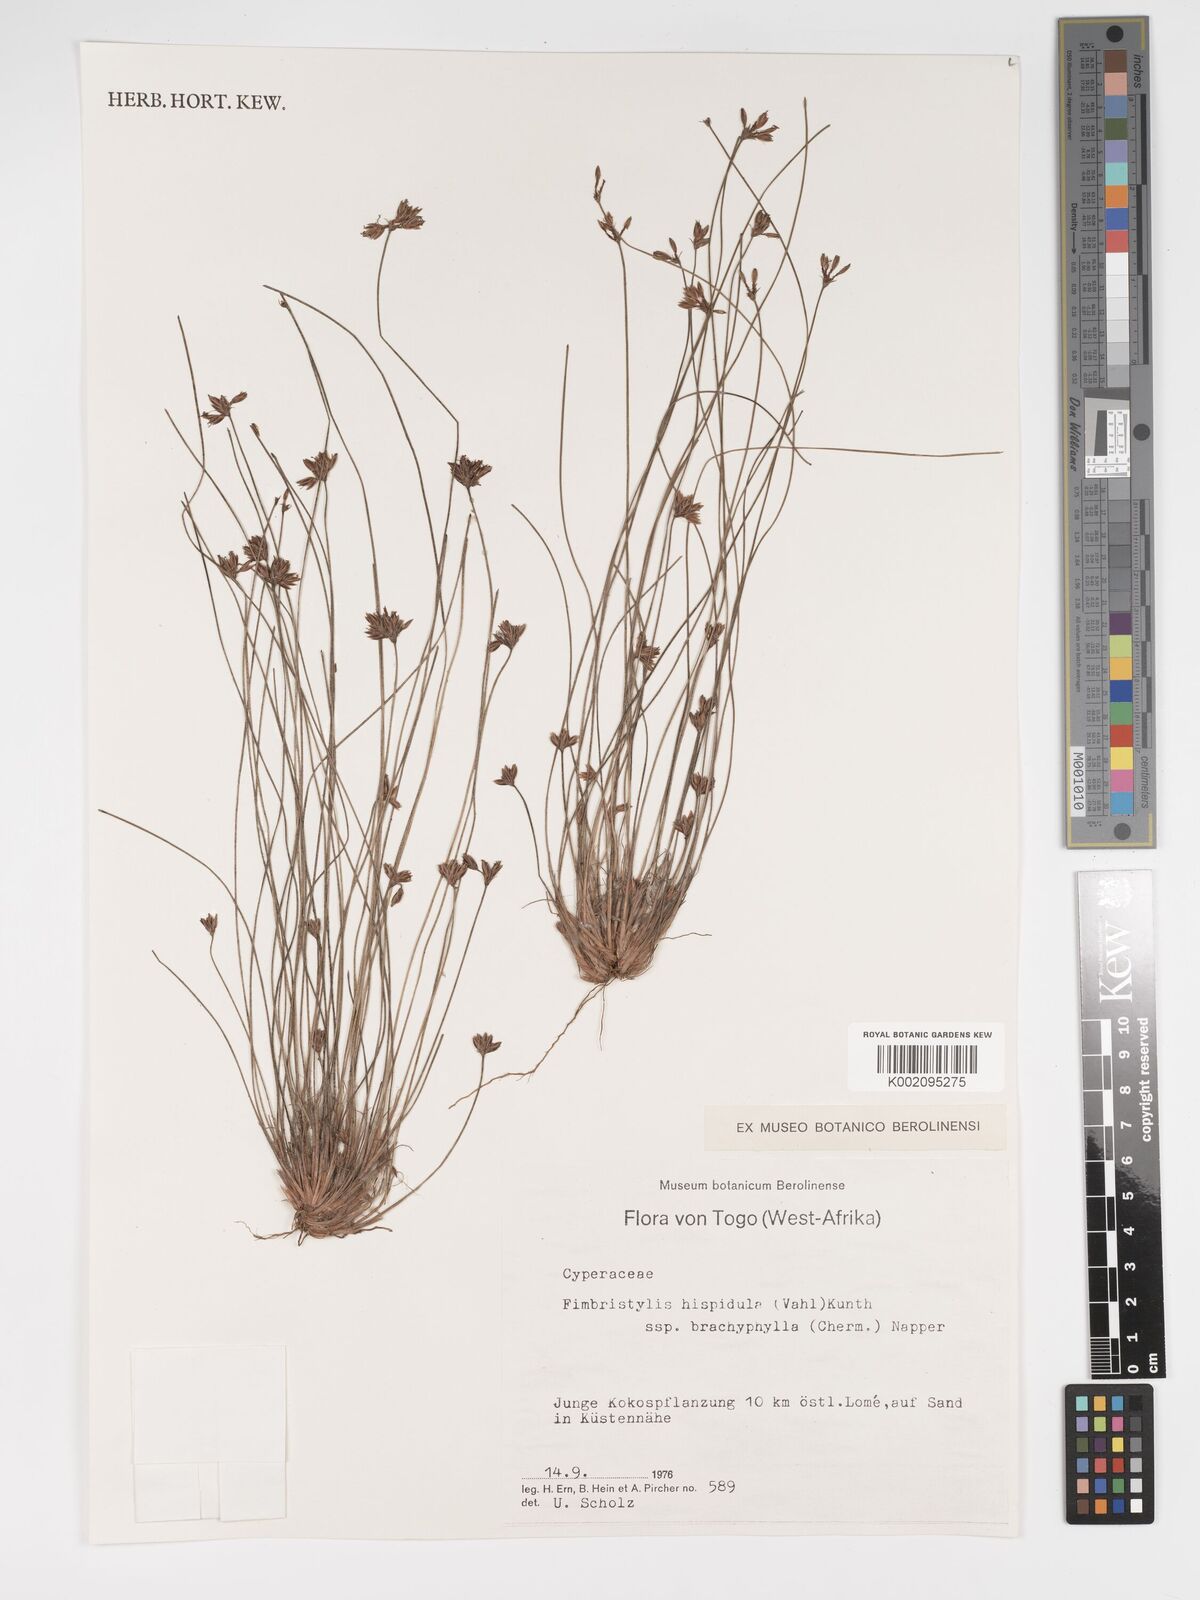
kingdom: Plantae
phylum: Tracheophyta
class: Liliopsida
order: Poales
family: Cyperaceae
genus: Bulbostylis
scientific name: Bulbostylis hispidula
